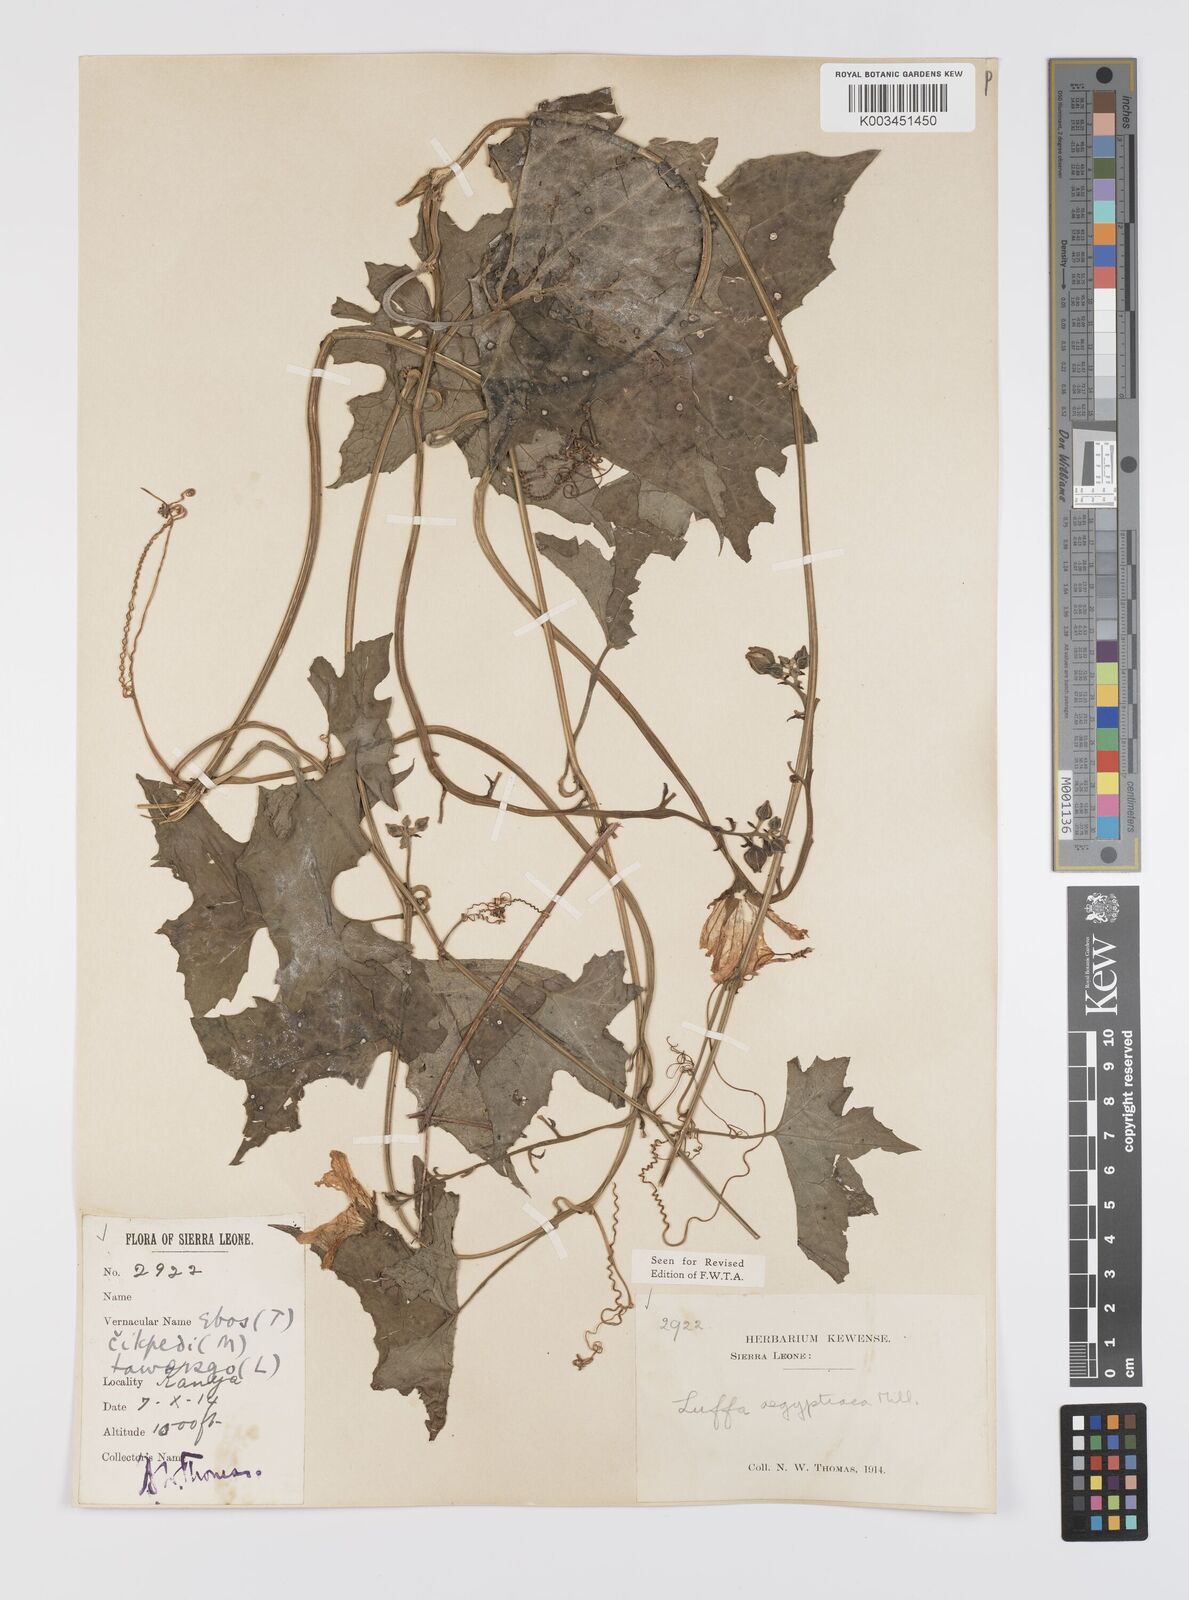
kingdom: Plantae
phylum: Tracheophyta
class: Magnoliopsida
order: Cucurbitales
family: Cucurbitaceae
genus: Luffa
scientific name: Luffa aegyptiaca
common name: Sponge gourd
